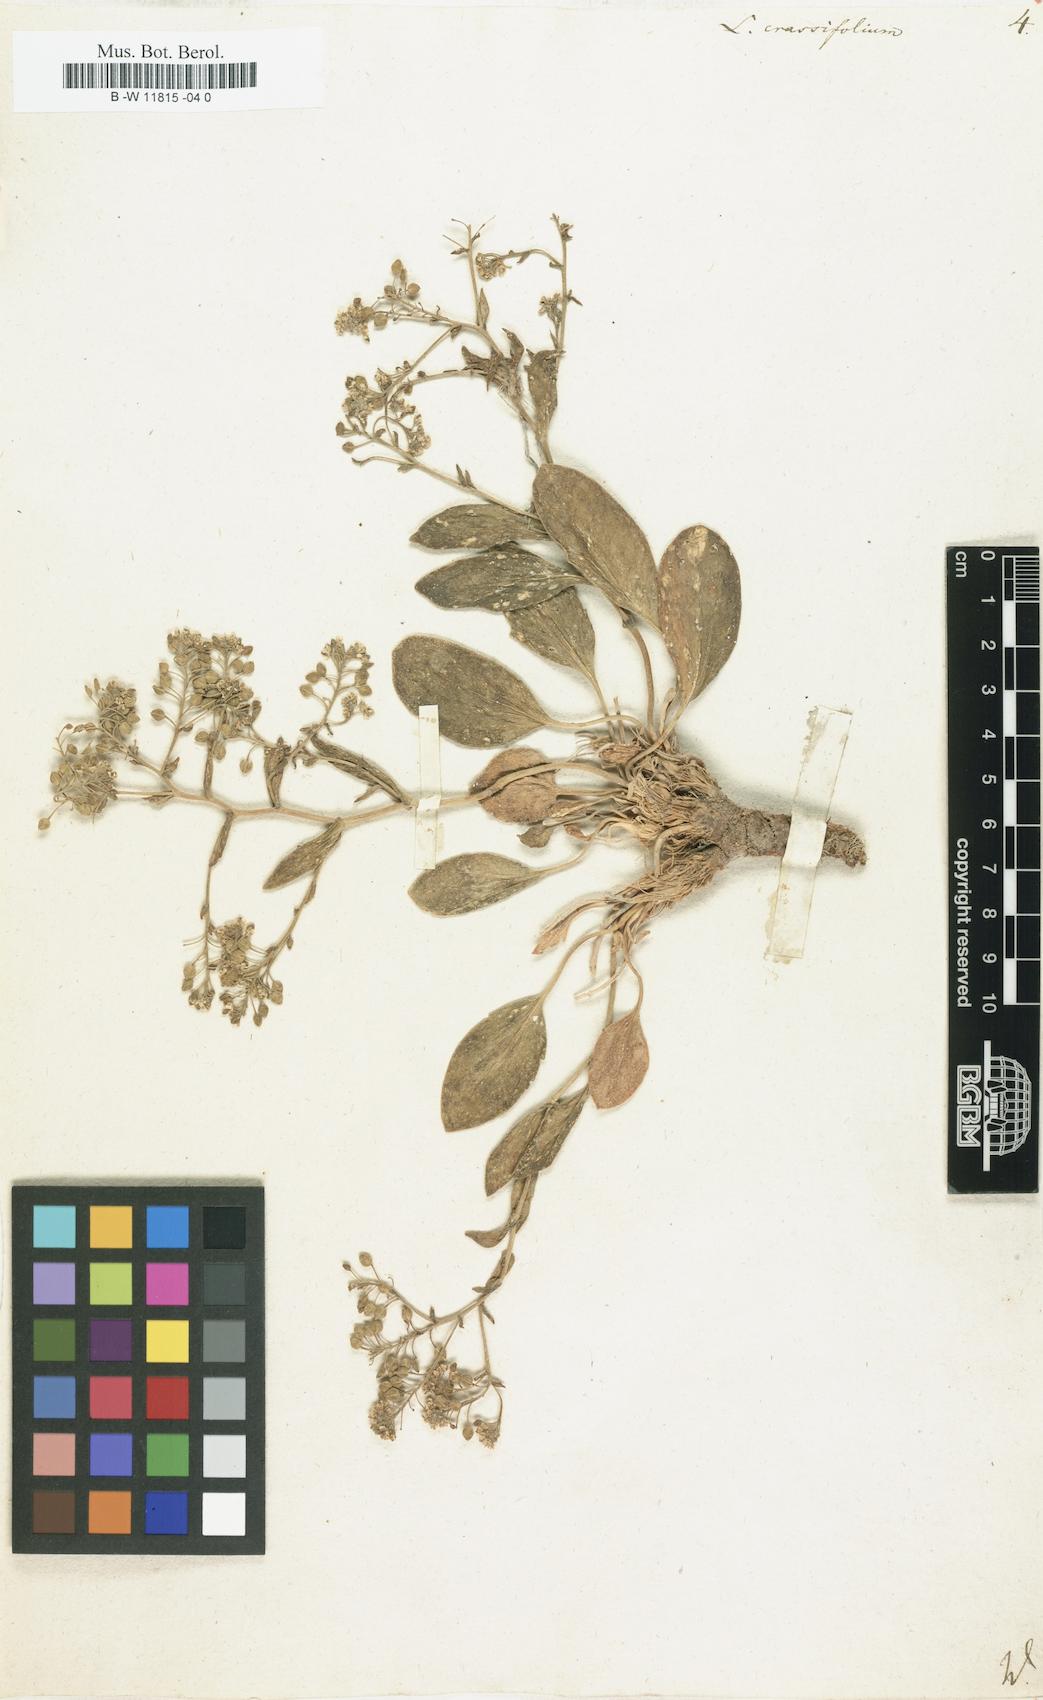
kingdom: Plantae
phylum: Tracheophyta
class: Magnoliopsida
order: Brassicales
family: Brassicaceae
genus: Lepidium
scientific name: Lepidium cartilagineum
